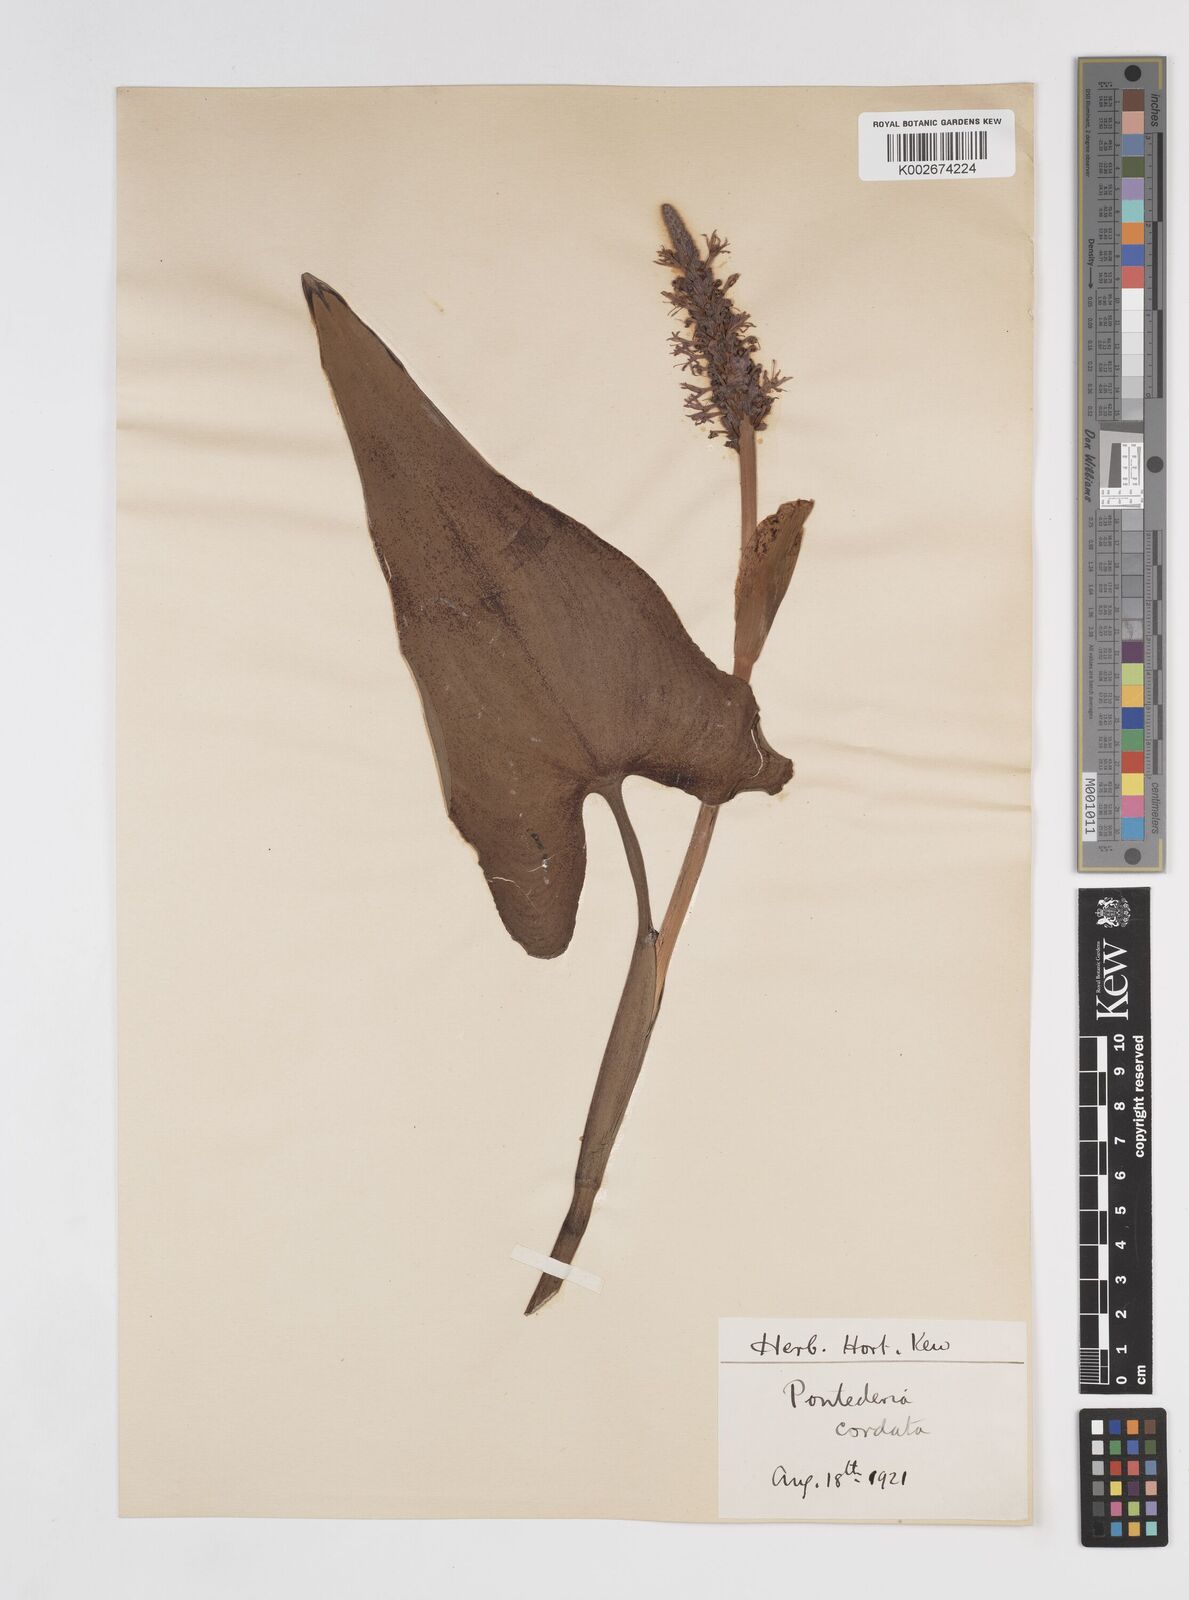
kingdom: Plantae
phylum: Tracheophyta
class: Liliopsida
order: Commelinales
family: Pontederiaceae
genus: Pontederia
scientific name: Pontederia
